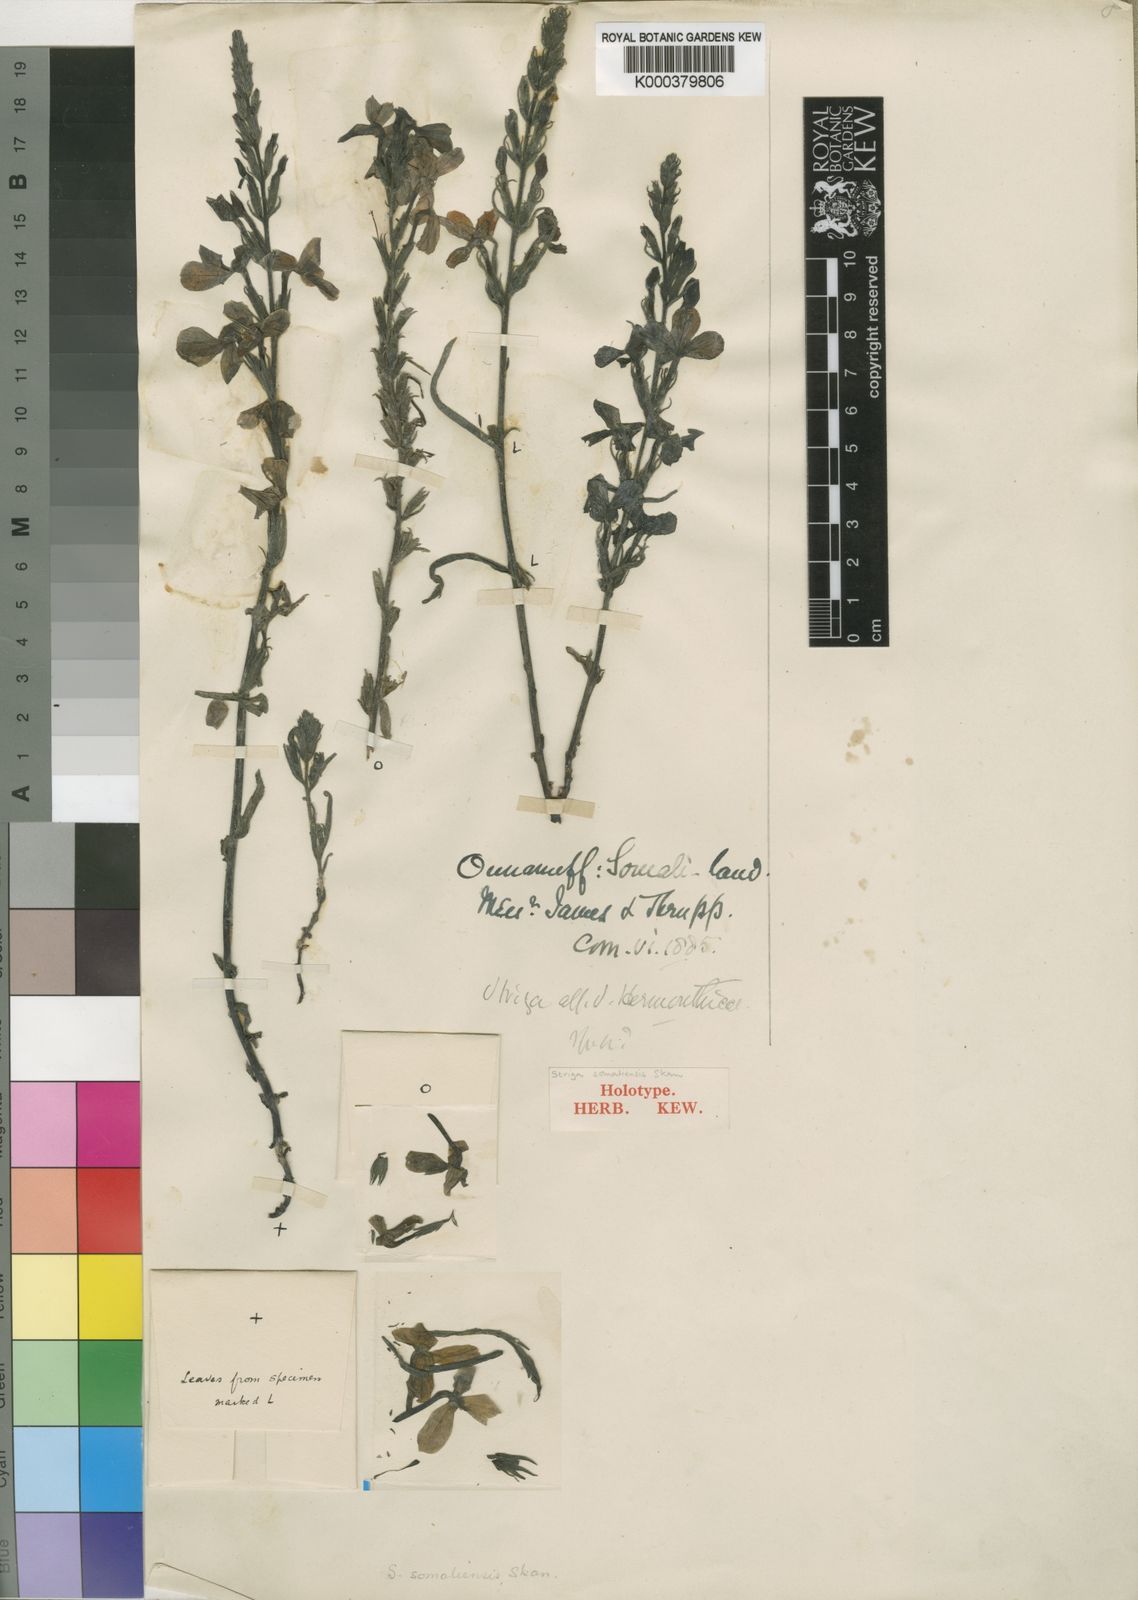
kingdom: Plantae
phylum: Tracheophyta
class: Magnoliopsida
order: Lamiales
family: Orobanchaceae
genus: Striga
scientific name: Striga latericea
